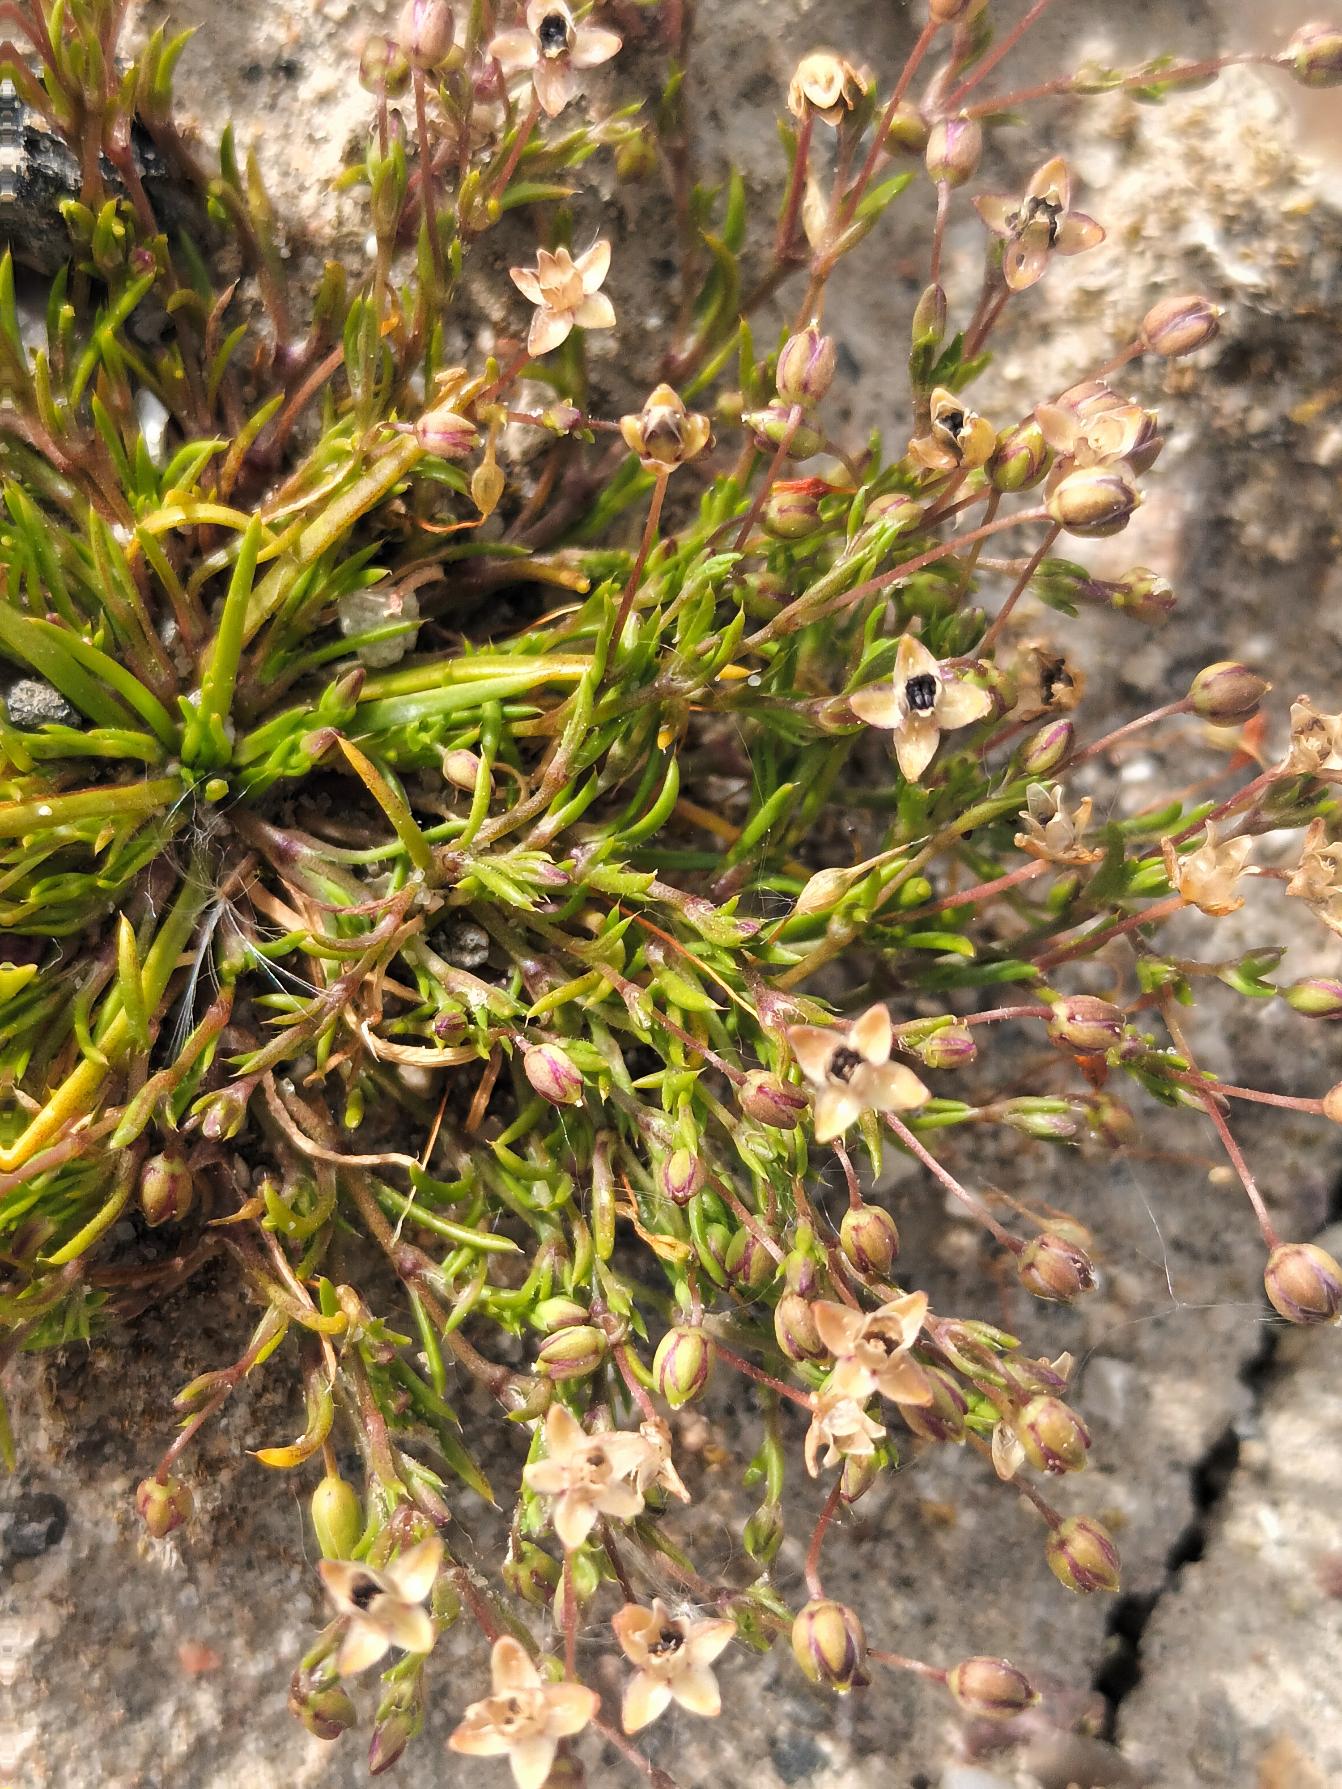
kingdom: Plantae
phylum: Tracheophyta
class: Magnoliopsida
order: Caryophyllales
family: Caryophyllaceae
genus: Sagina
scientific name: Sagina procumbens
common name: Almindelig firling
